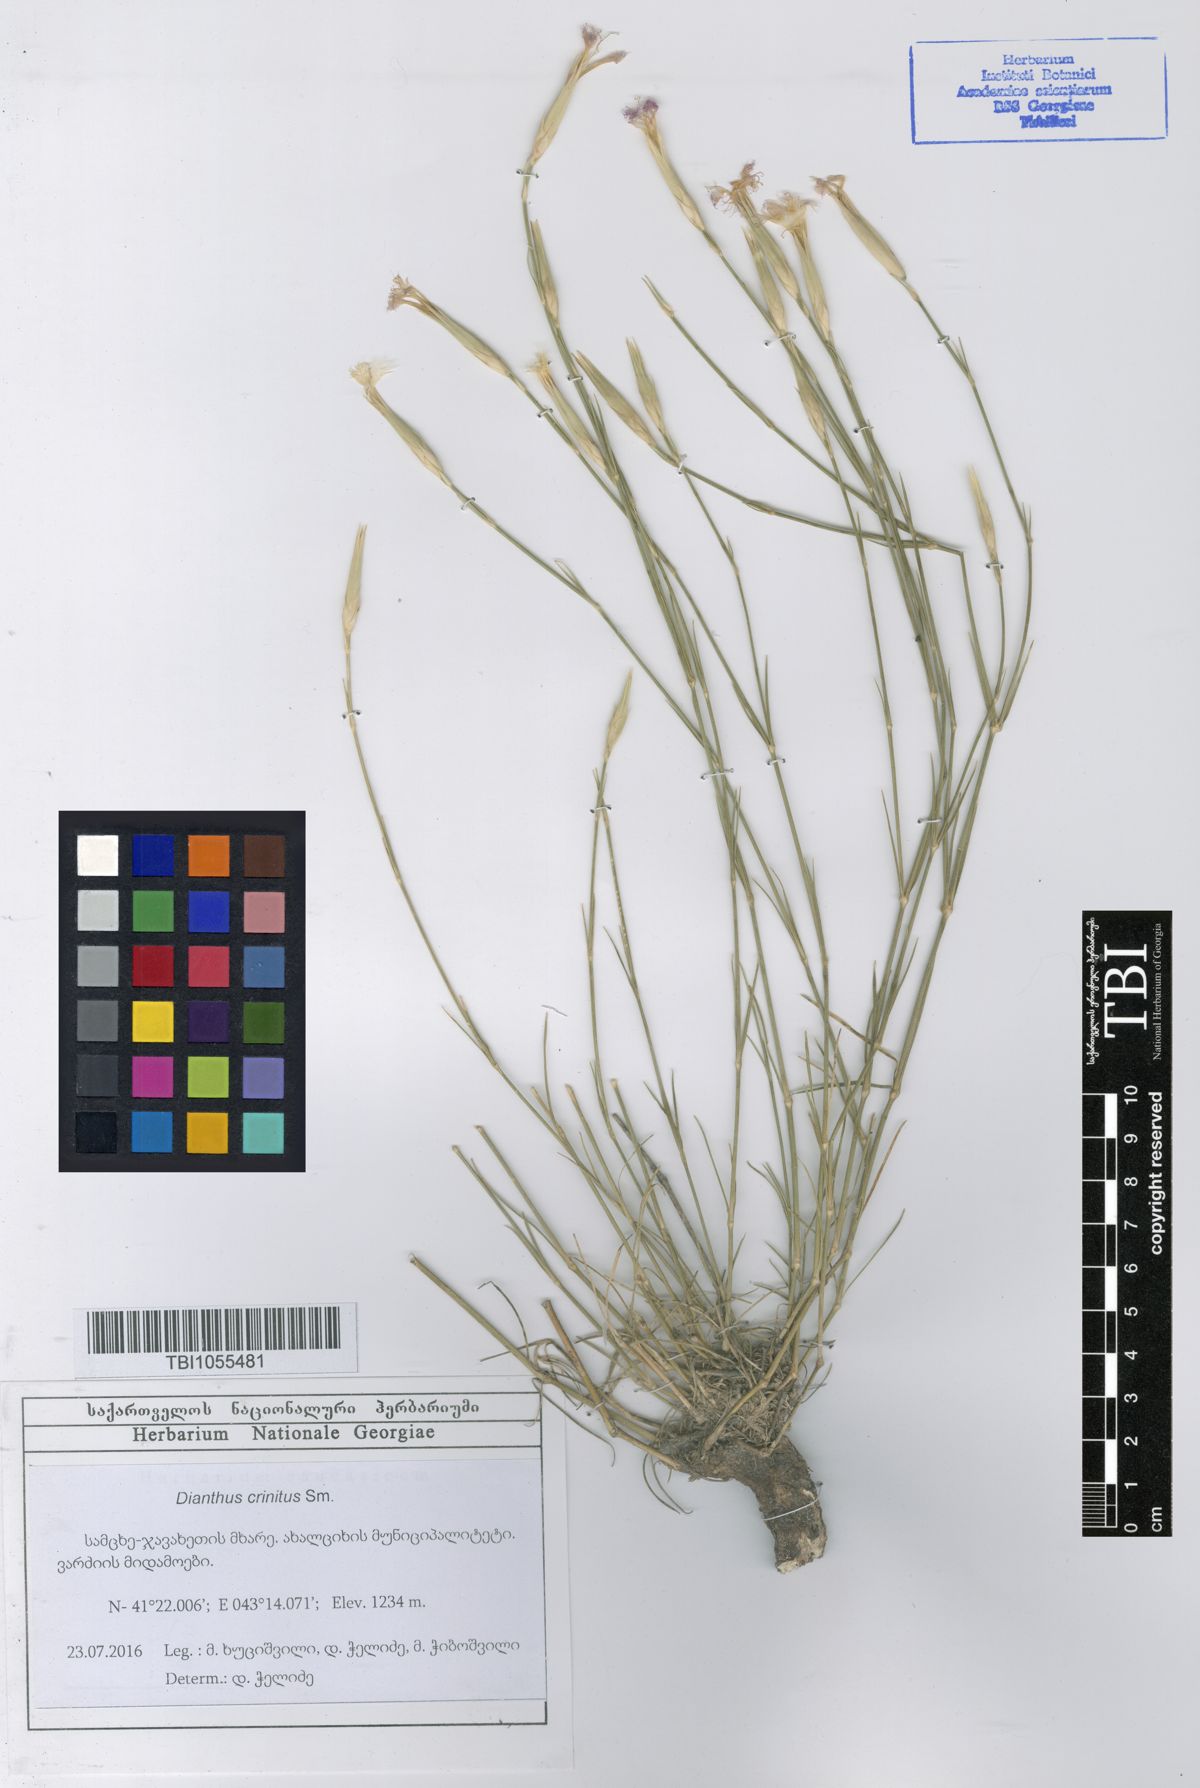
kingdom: Plantae
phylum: Tracheophyta
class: Magnoliopsida
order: Caryophyllales
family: Caryophyllaceae
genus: Dianthus
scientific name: Dianthus crinitus
